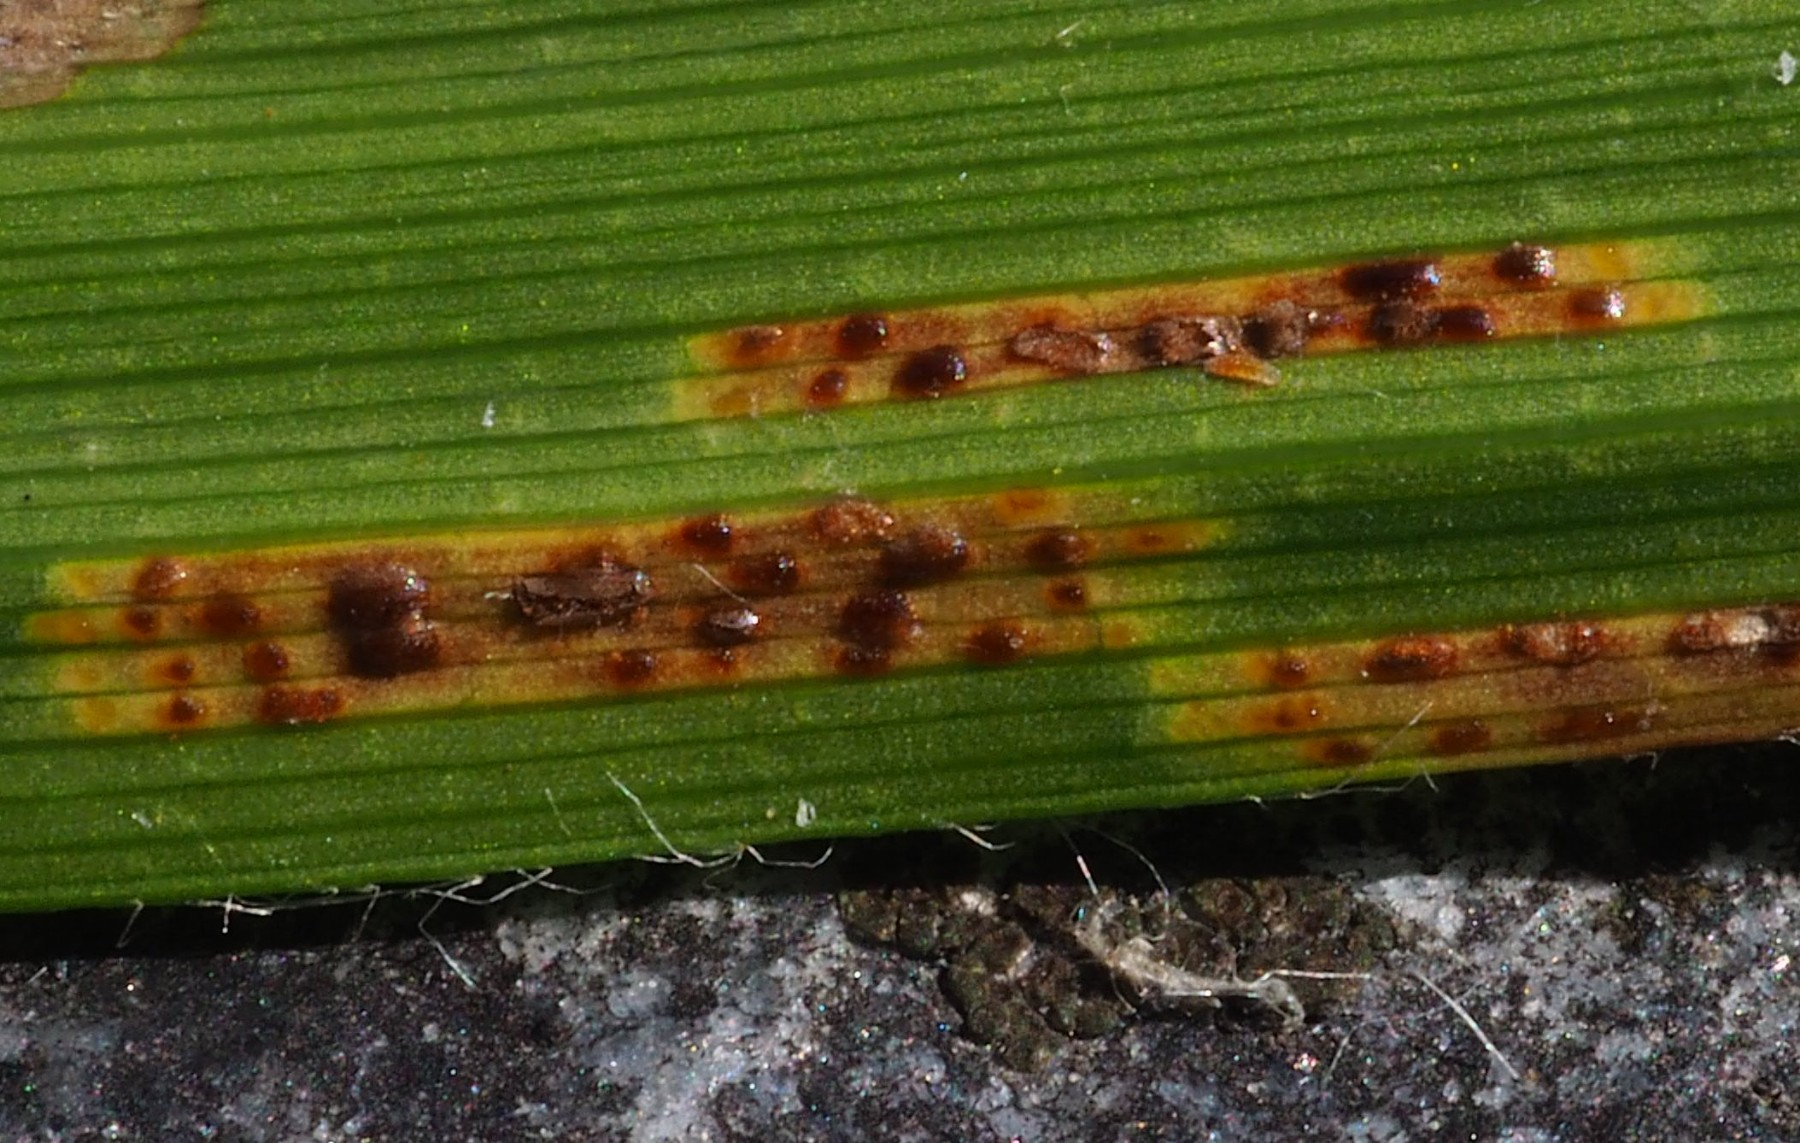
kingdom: Fungi
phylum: Basidiomycota
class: Pucciniomycetes
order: Pucciniales
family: Pucciniaceae
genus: Puccinia
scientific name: Puccinia obscura
